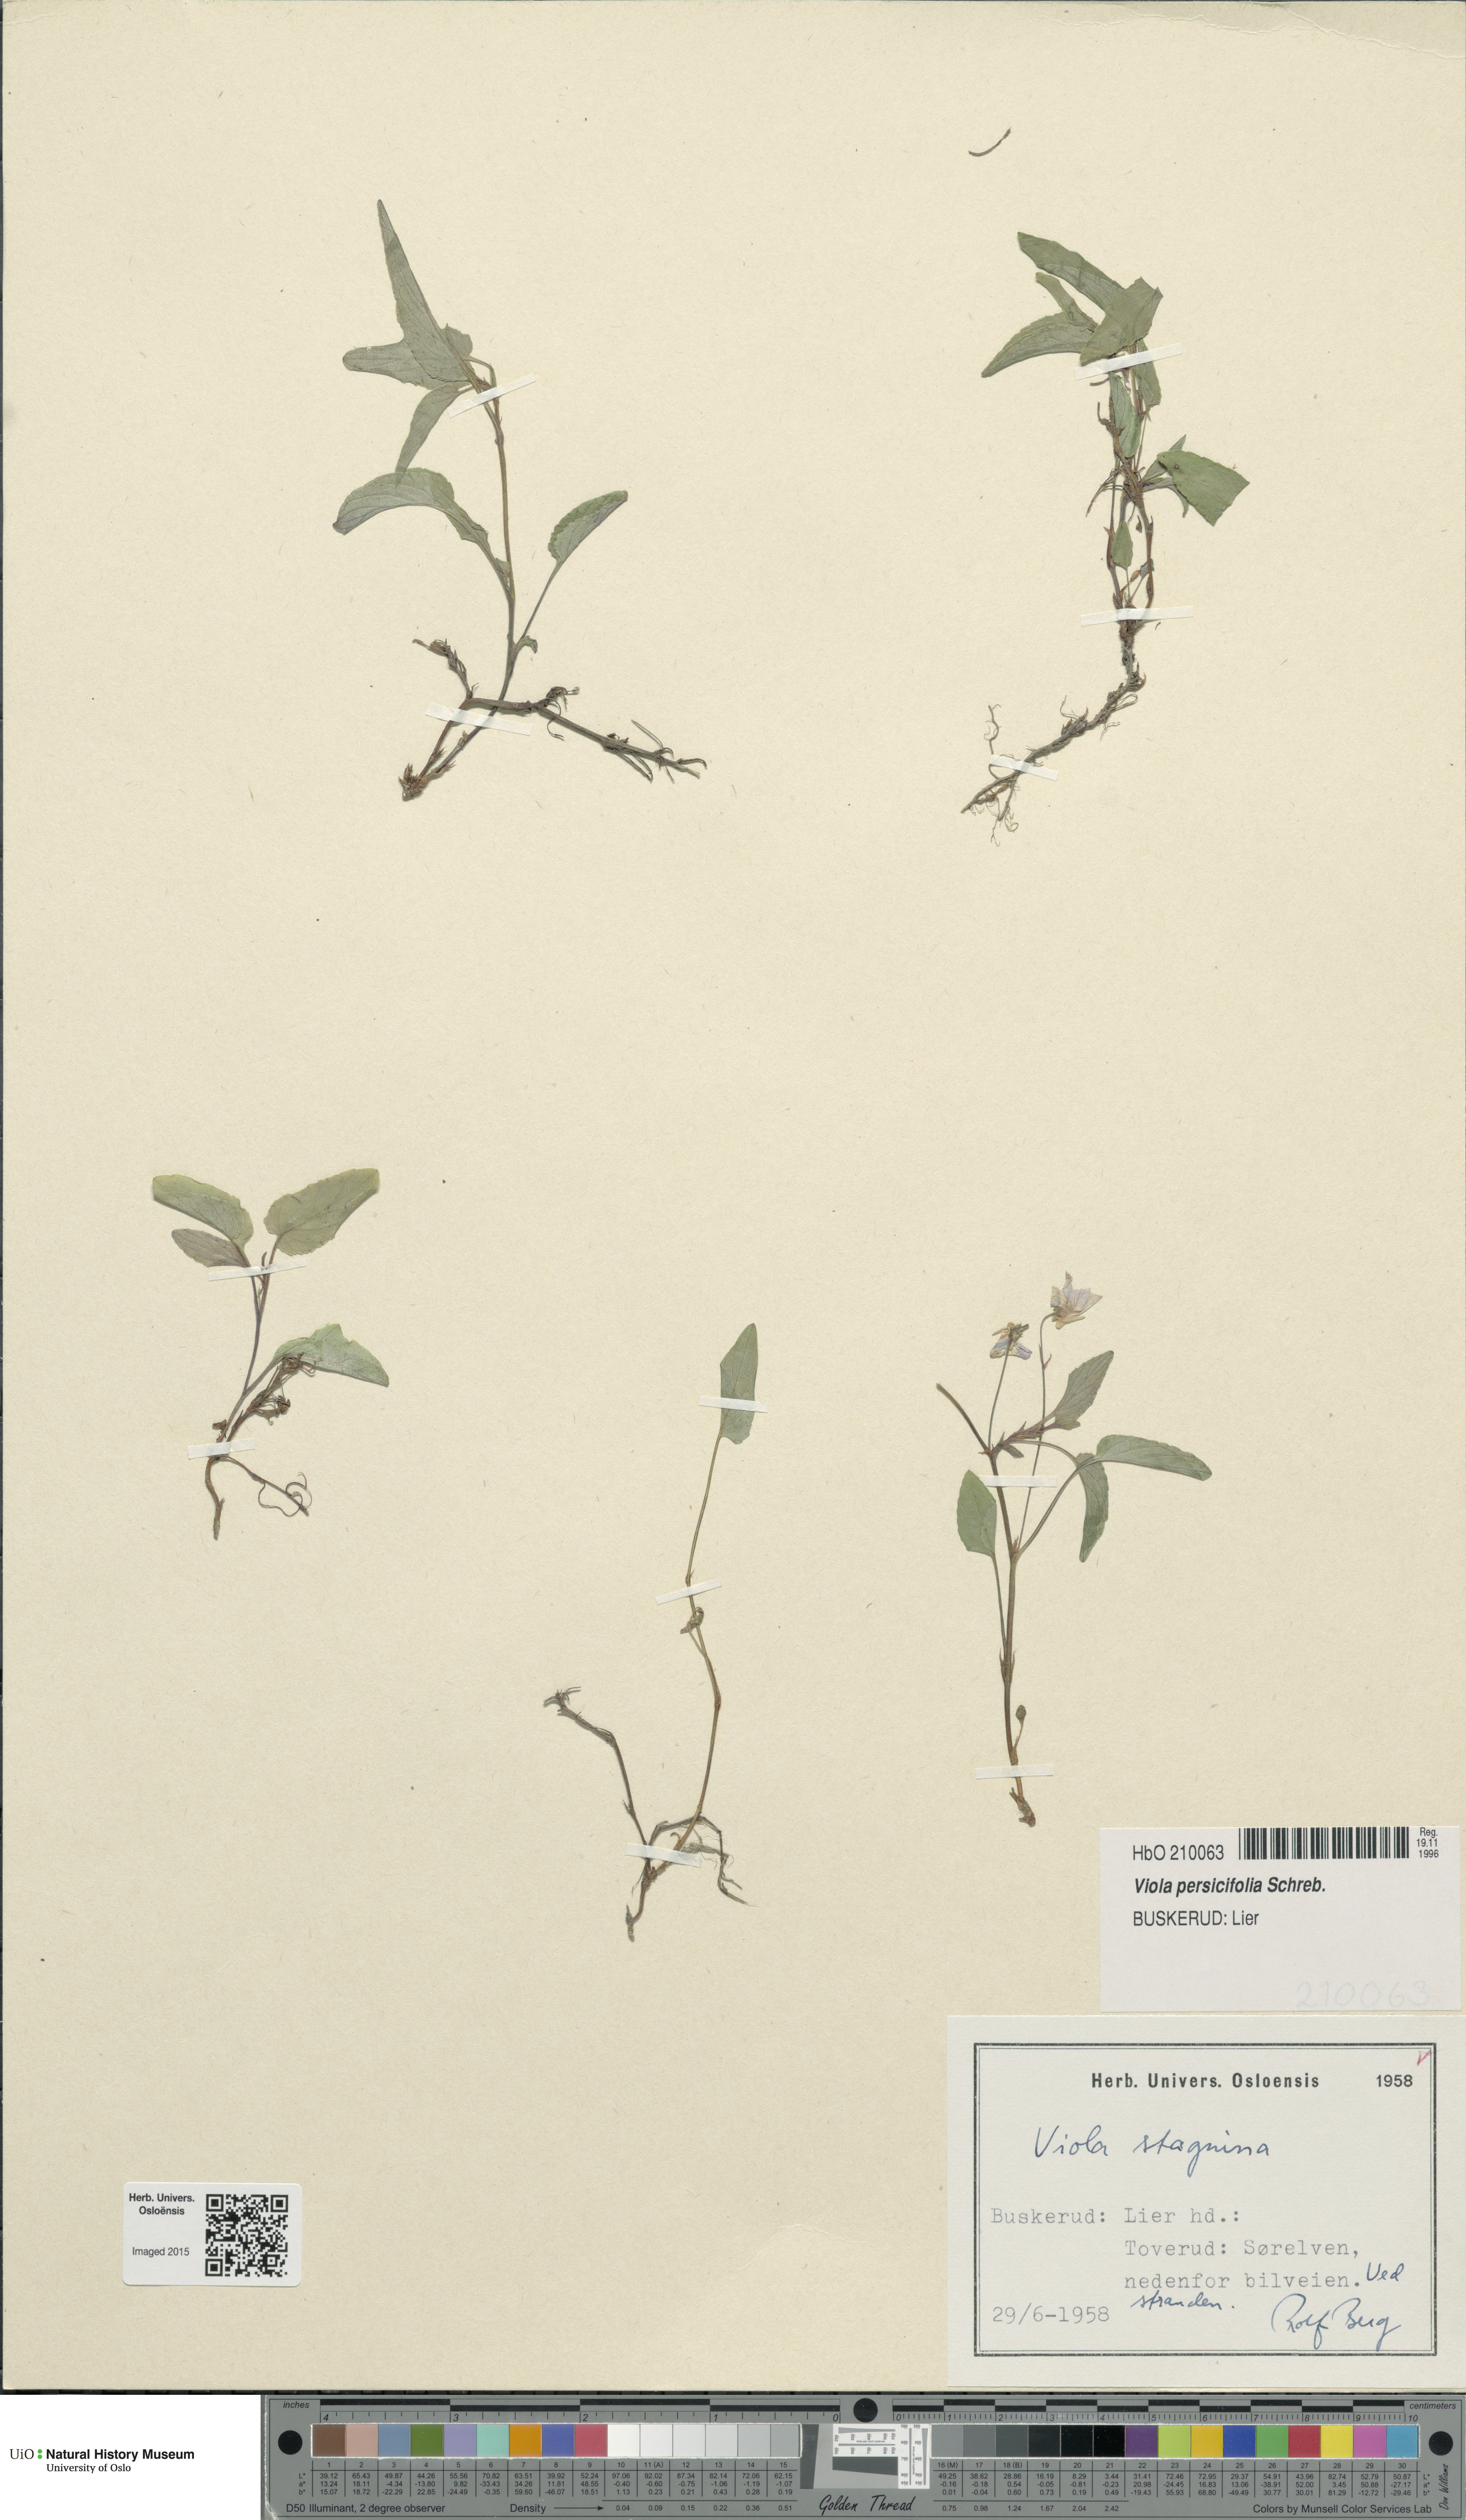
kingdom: Plantae
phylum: Tracheophyta
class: Magnoliopsida
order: Malpighiales
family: Violaceae
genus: Viola
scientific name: Viola stagnina
